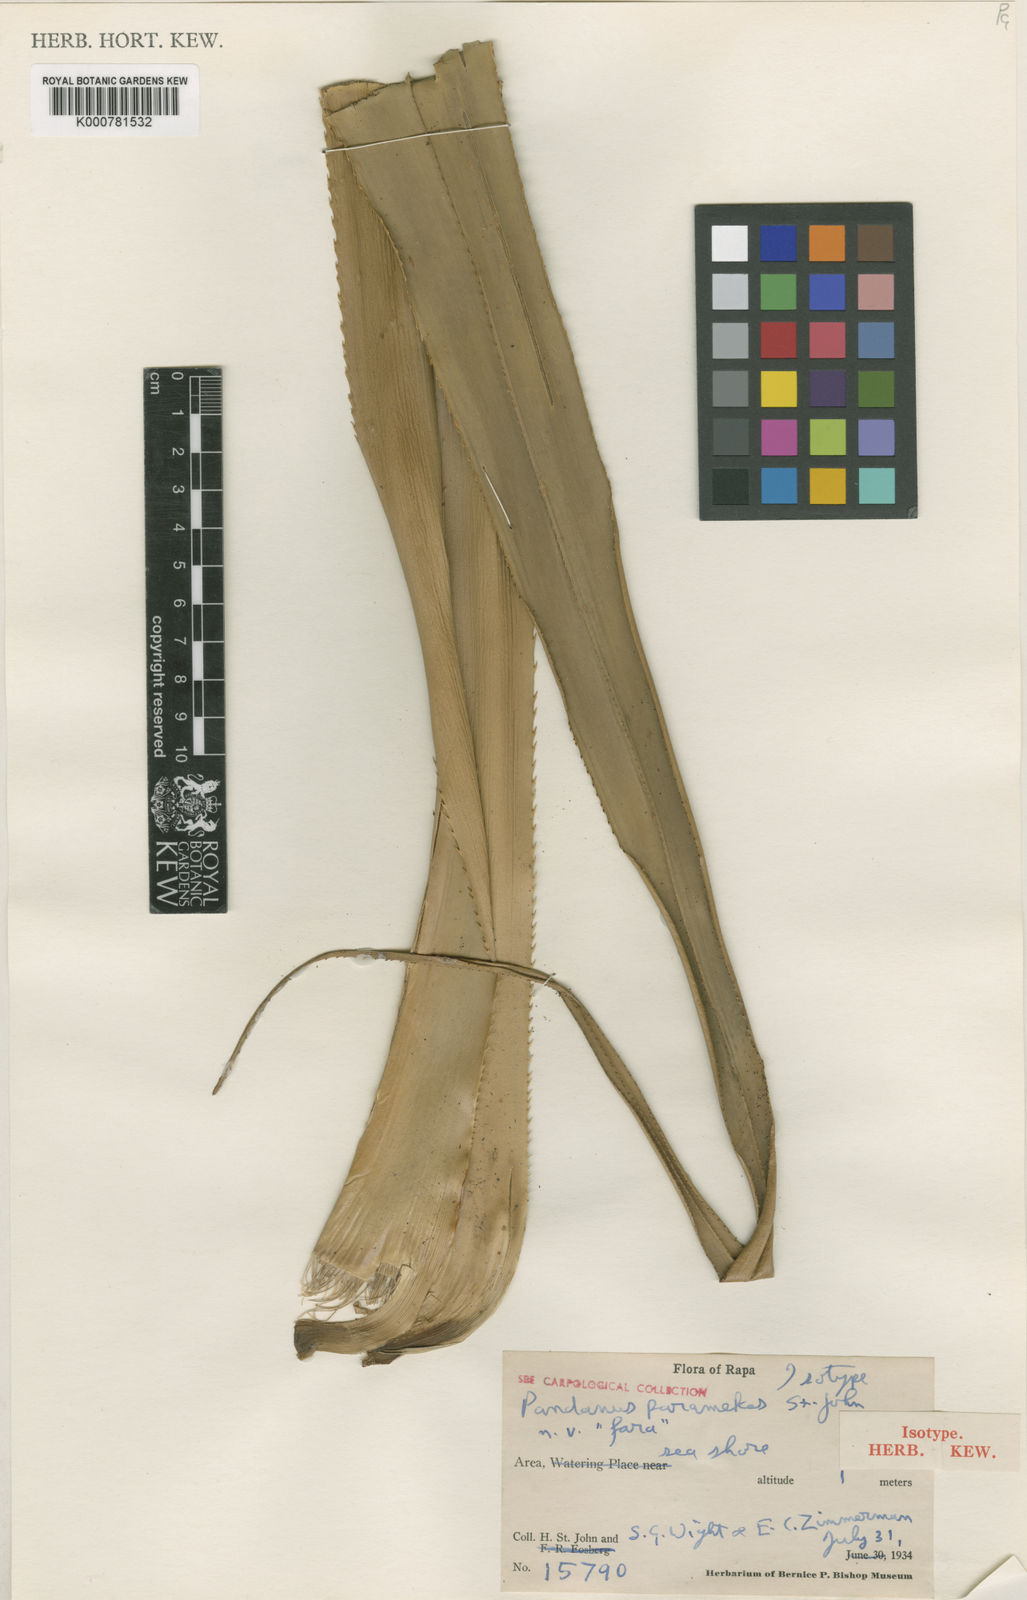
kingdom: Plantae
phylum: Tracheophyta
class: Liliopsida
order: Pandanales
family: Pandanaceae
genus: Pandanus
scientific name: Pandanus
